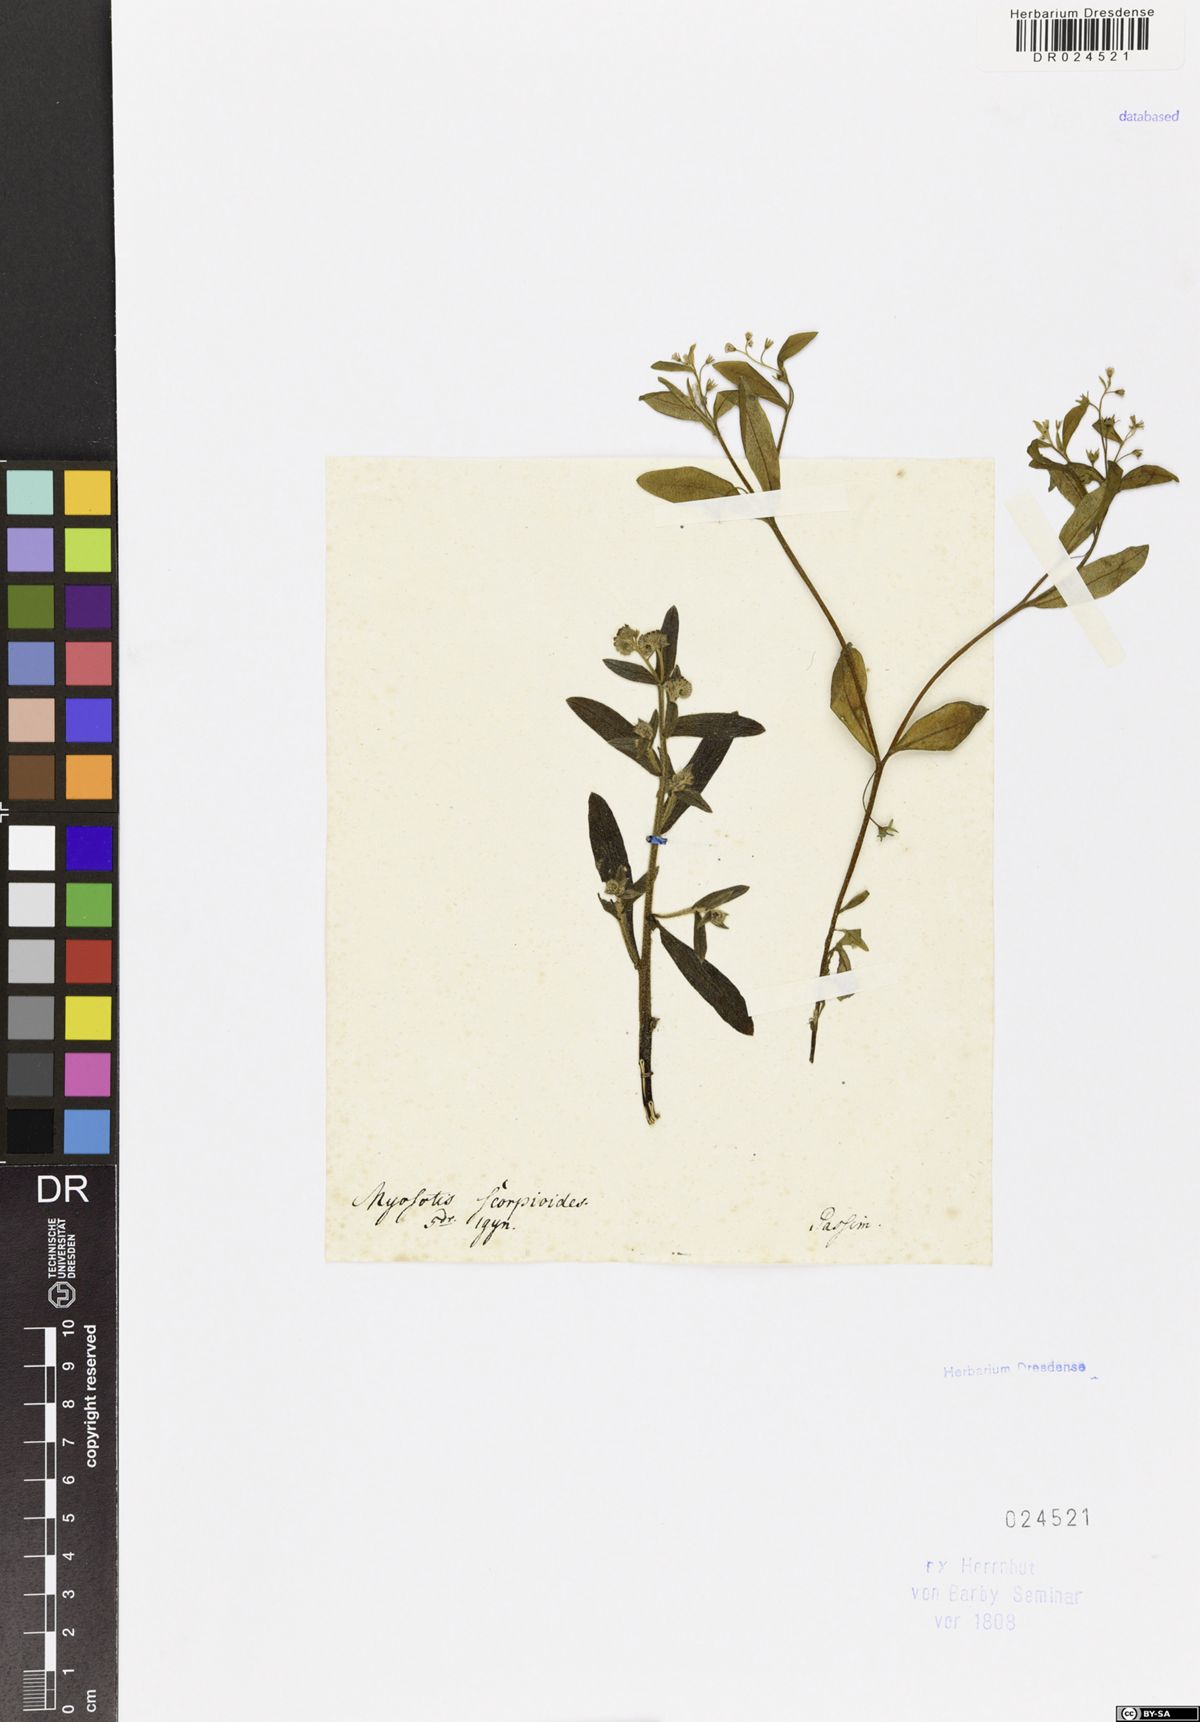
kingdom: Plantae
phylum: Tracheophyta
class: Magnoliopsida
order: Boraginales
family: Boraginaceae
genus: Myosotis
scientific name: Myosotis laxa
